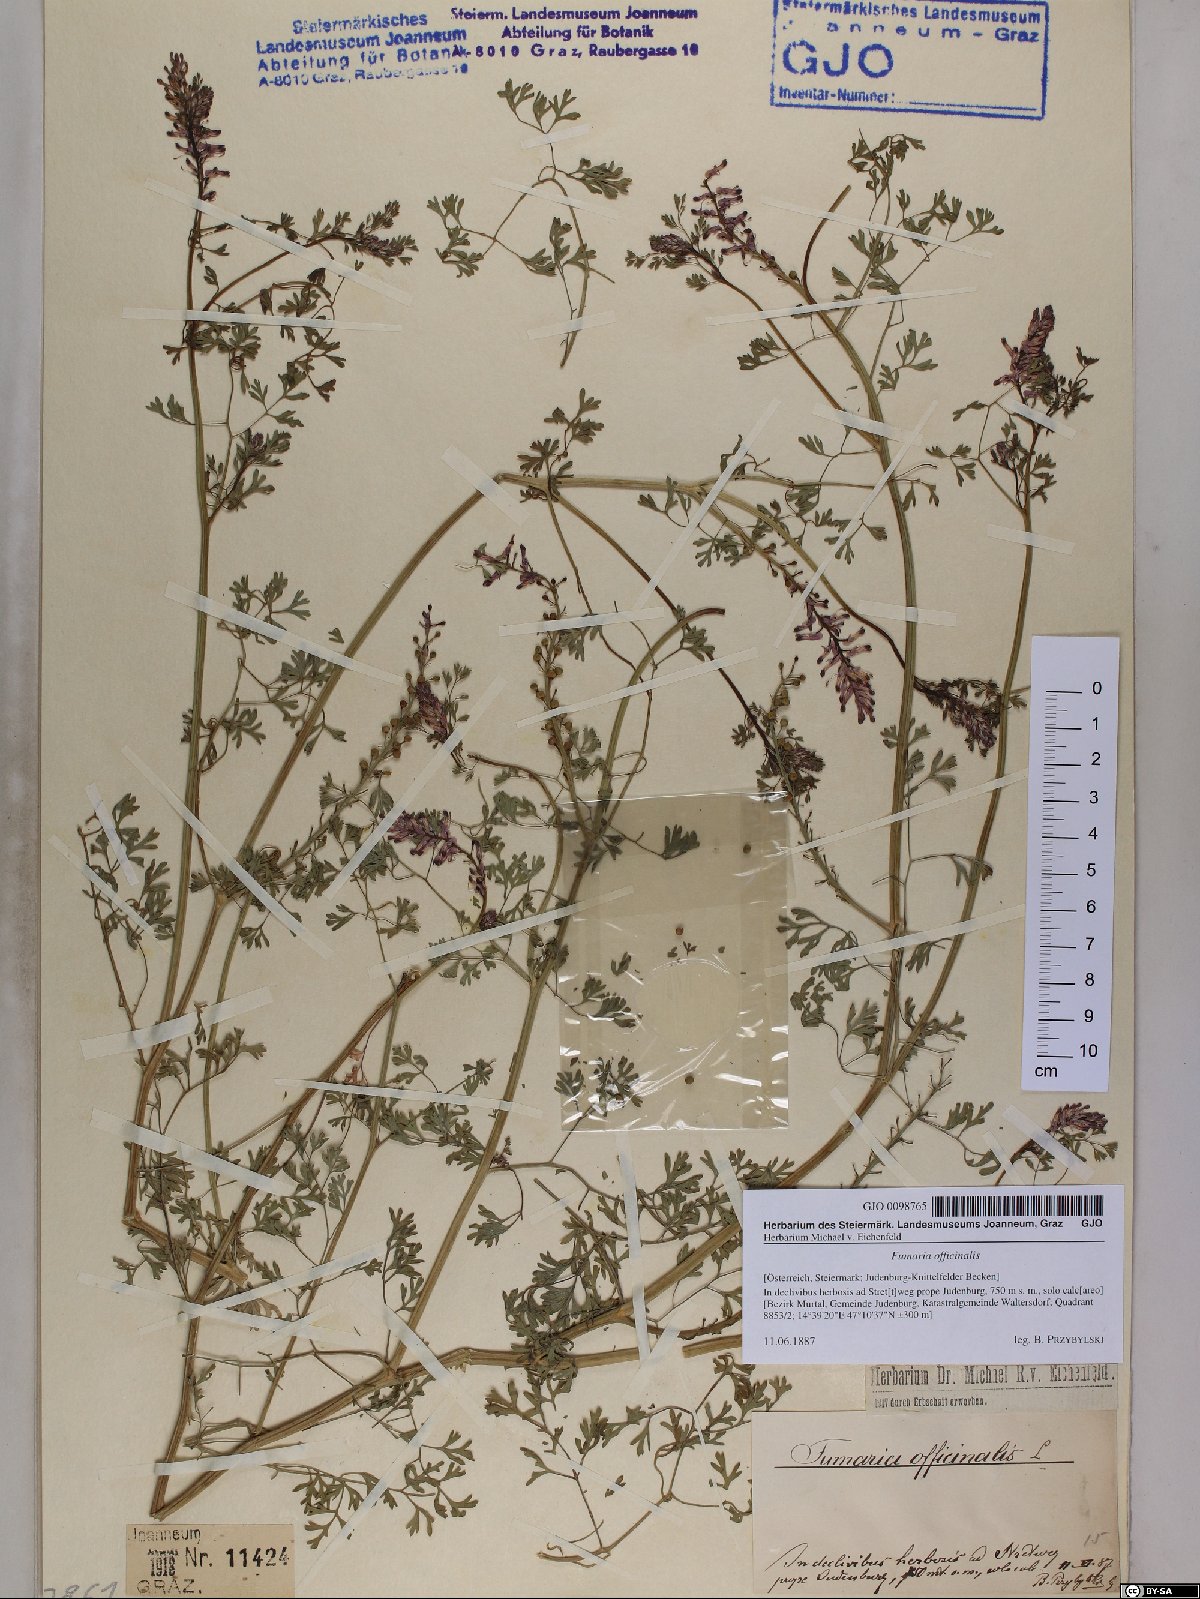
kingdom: Plantae
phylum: Tracheophyta
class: Magnoliopsida
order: Ranunculales
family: Papaveraceae
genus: Fumaria
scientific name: Fumaria officinalis
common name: Common fumitory
